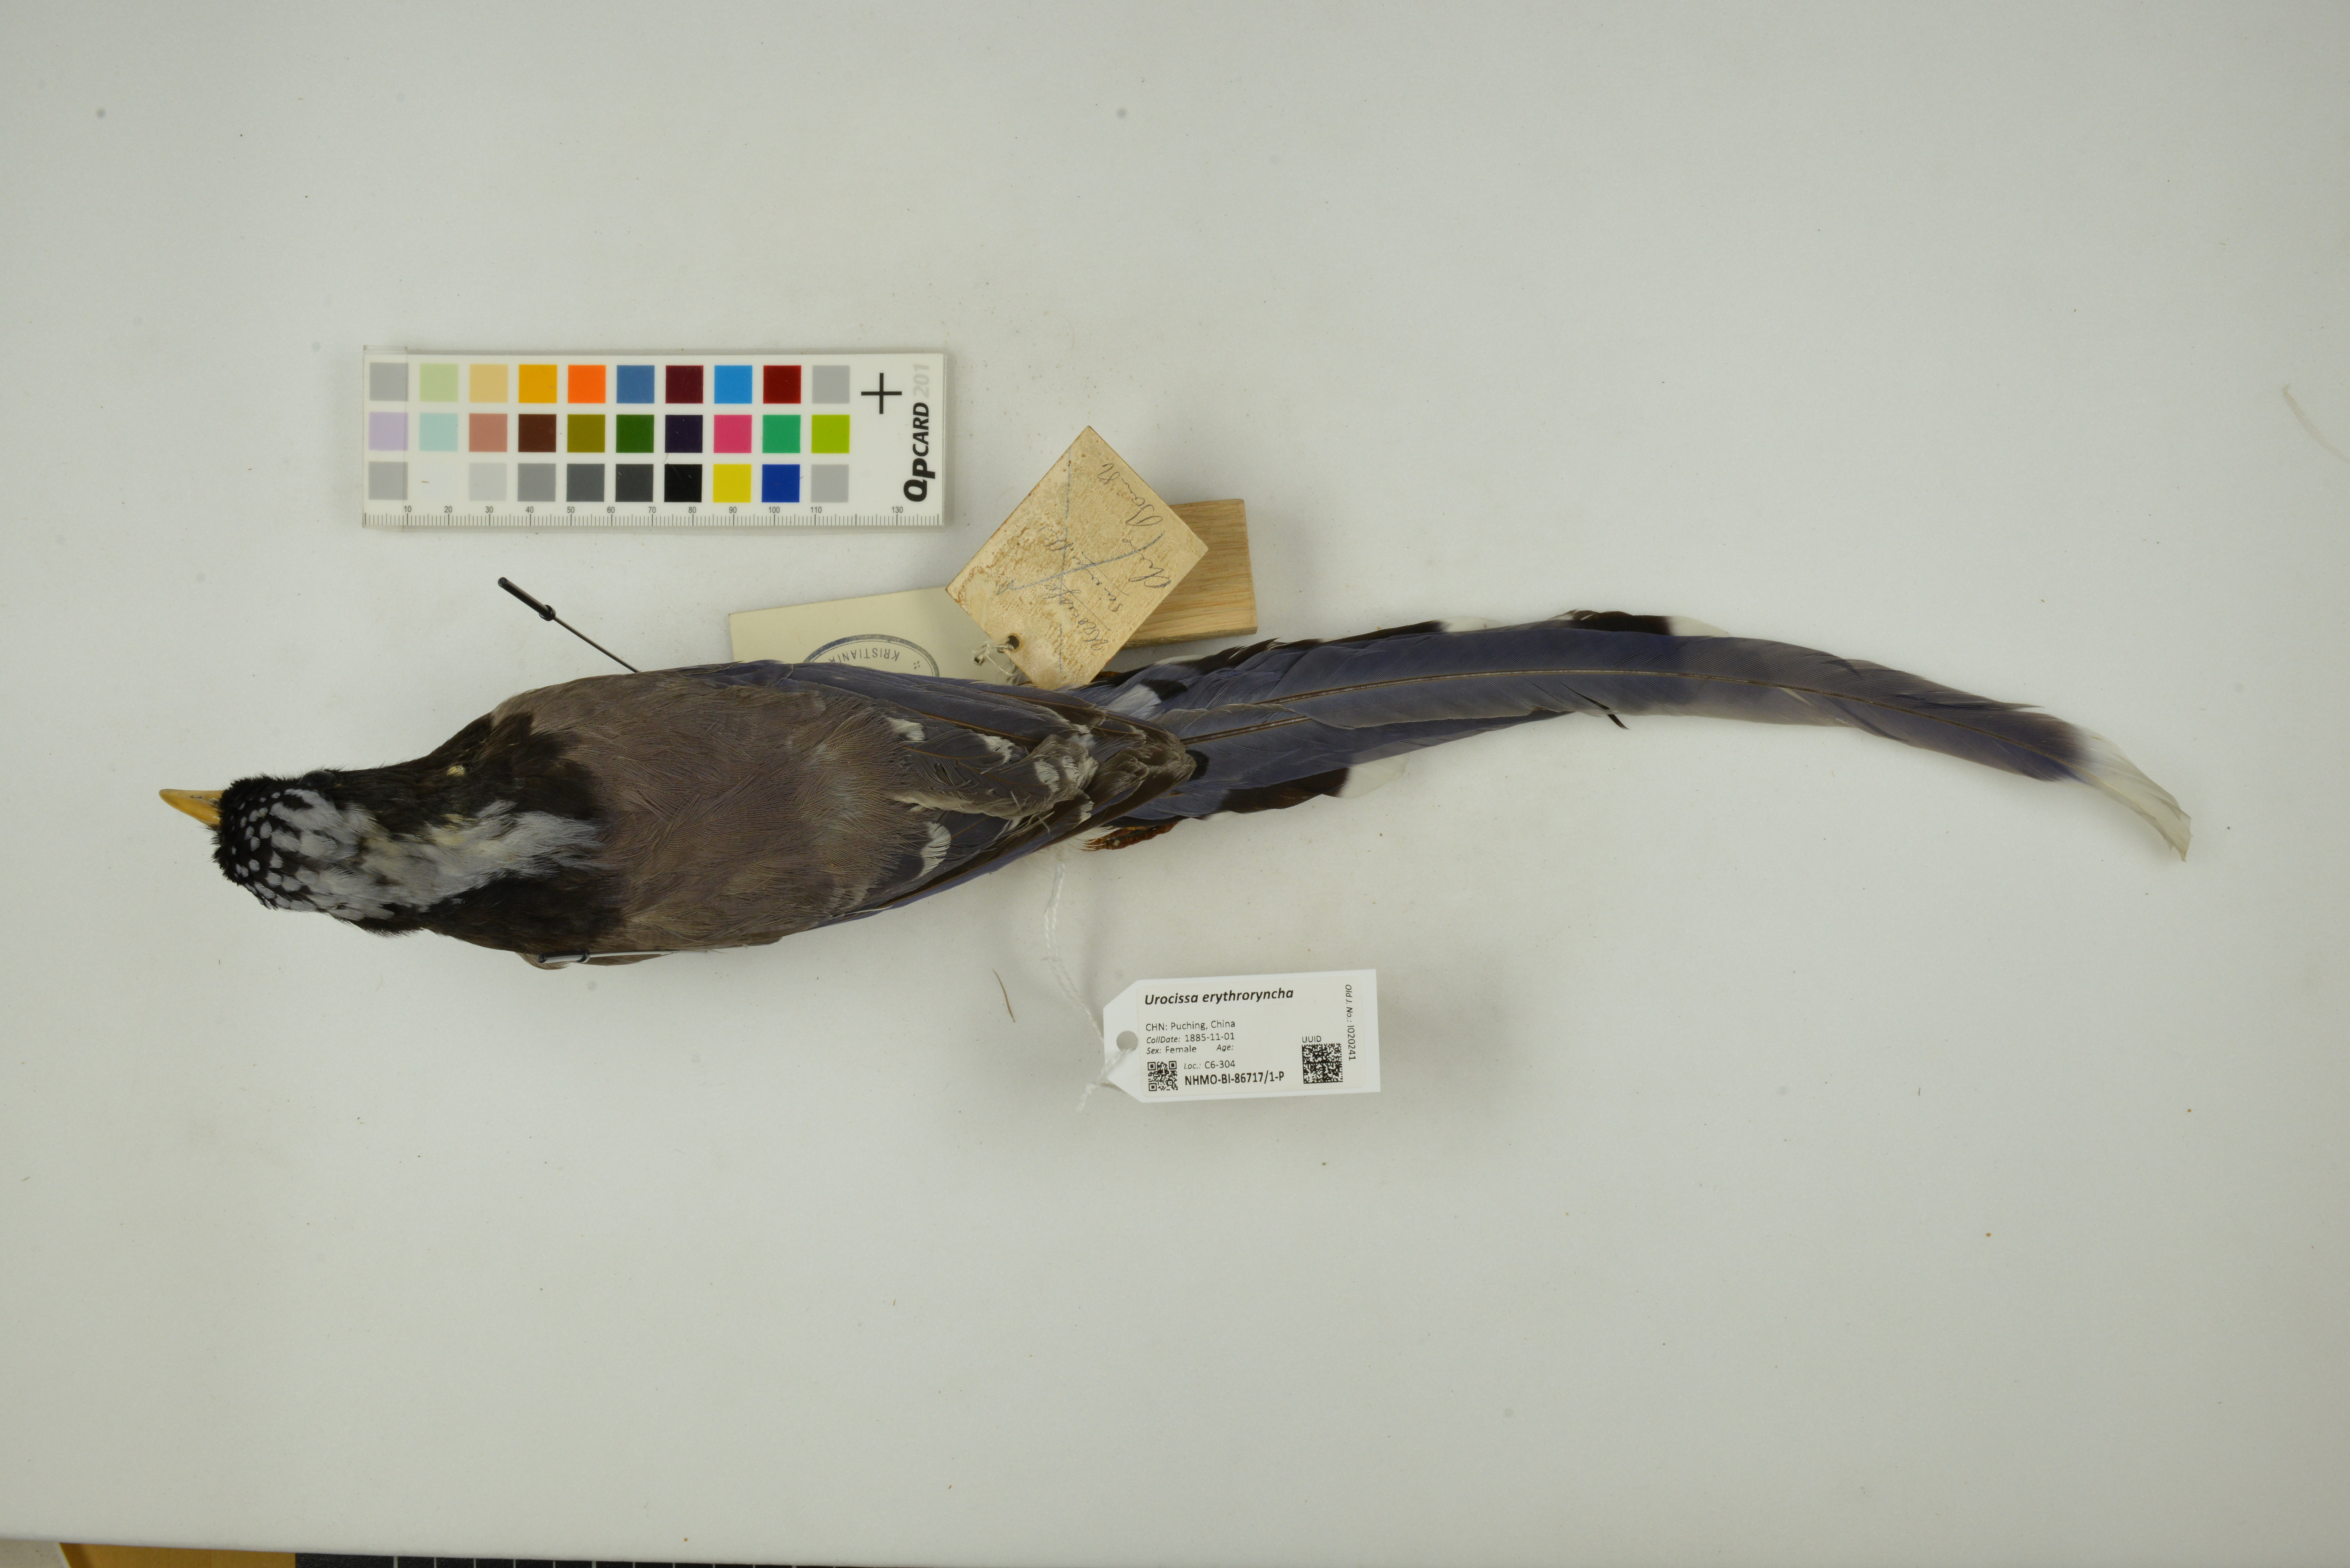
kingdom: Animalia
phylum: Chordata
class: Aves
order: Passeriformes
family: Corvidae
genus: Urocissa
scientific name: Urocissa erythroryncha
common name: Red-billed blue magpie
